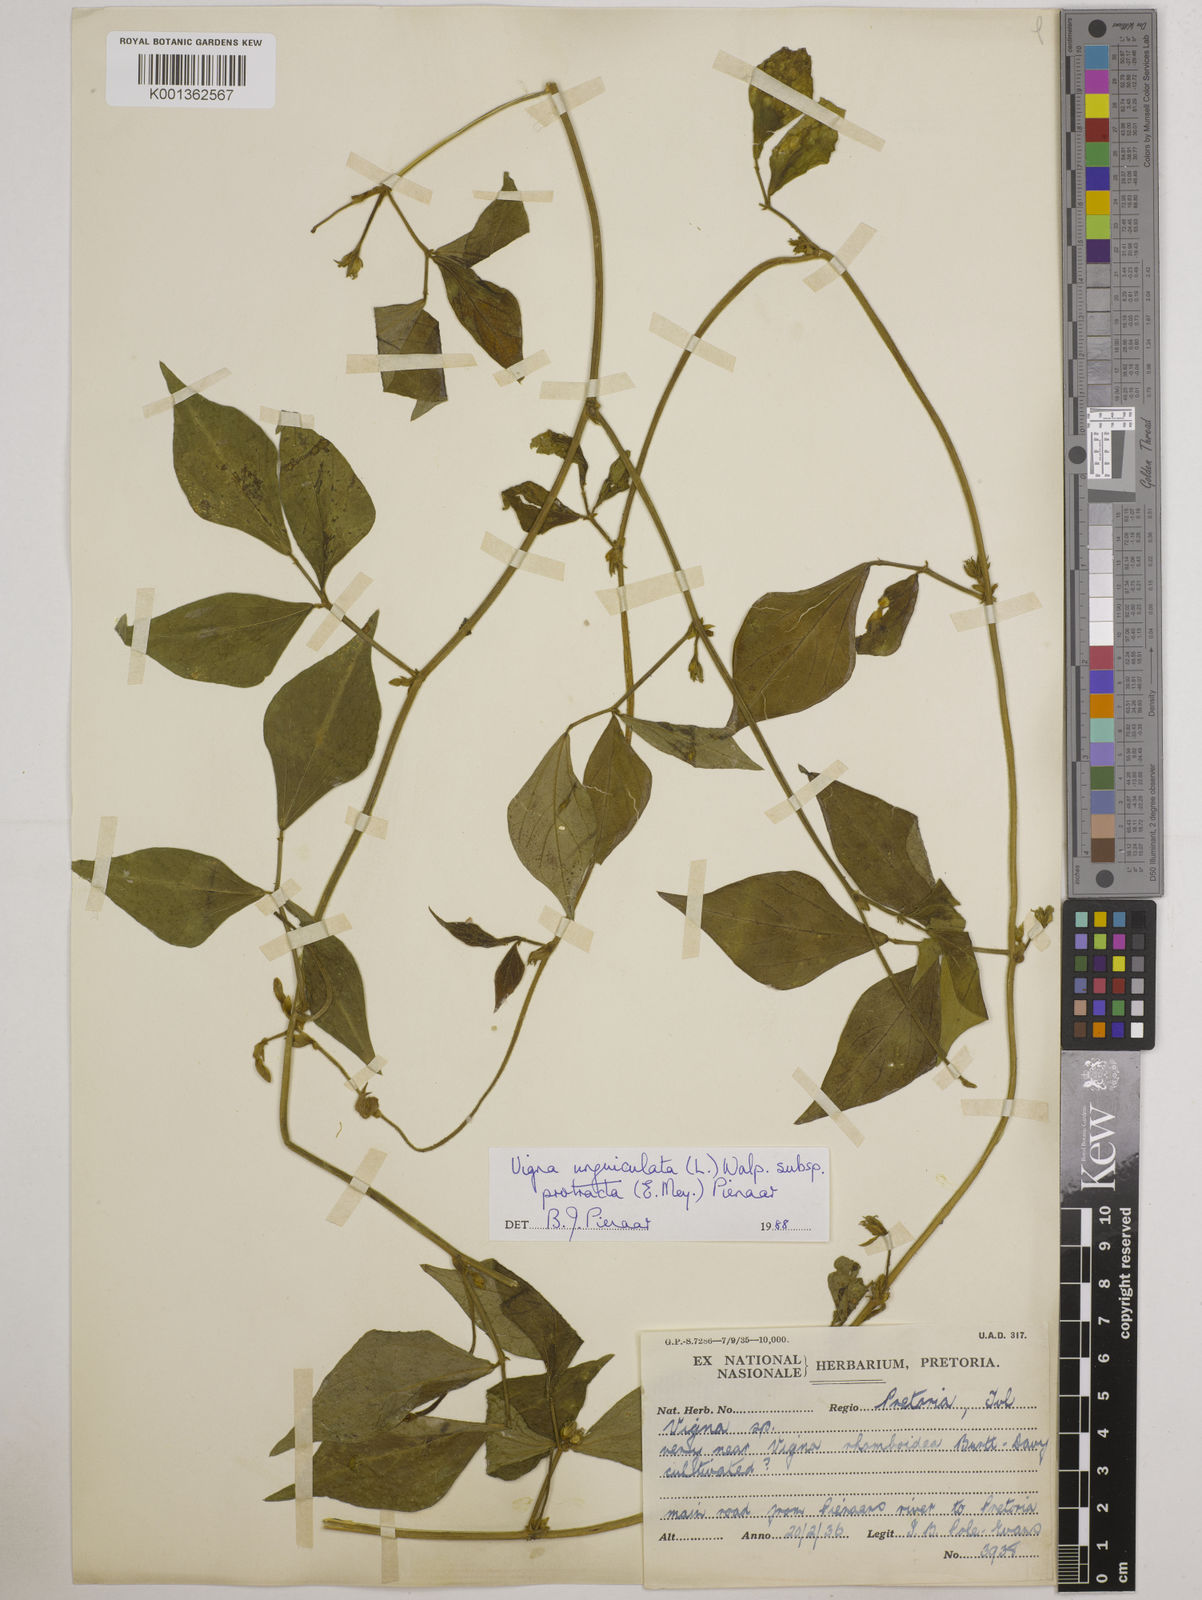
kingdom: Plantae
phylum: Tracheophyta
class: Magnoliopsida
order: Fabales
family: Fabaceae
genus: Vigna
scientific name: Vigna unguiculata
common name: Cowpea
